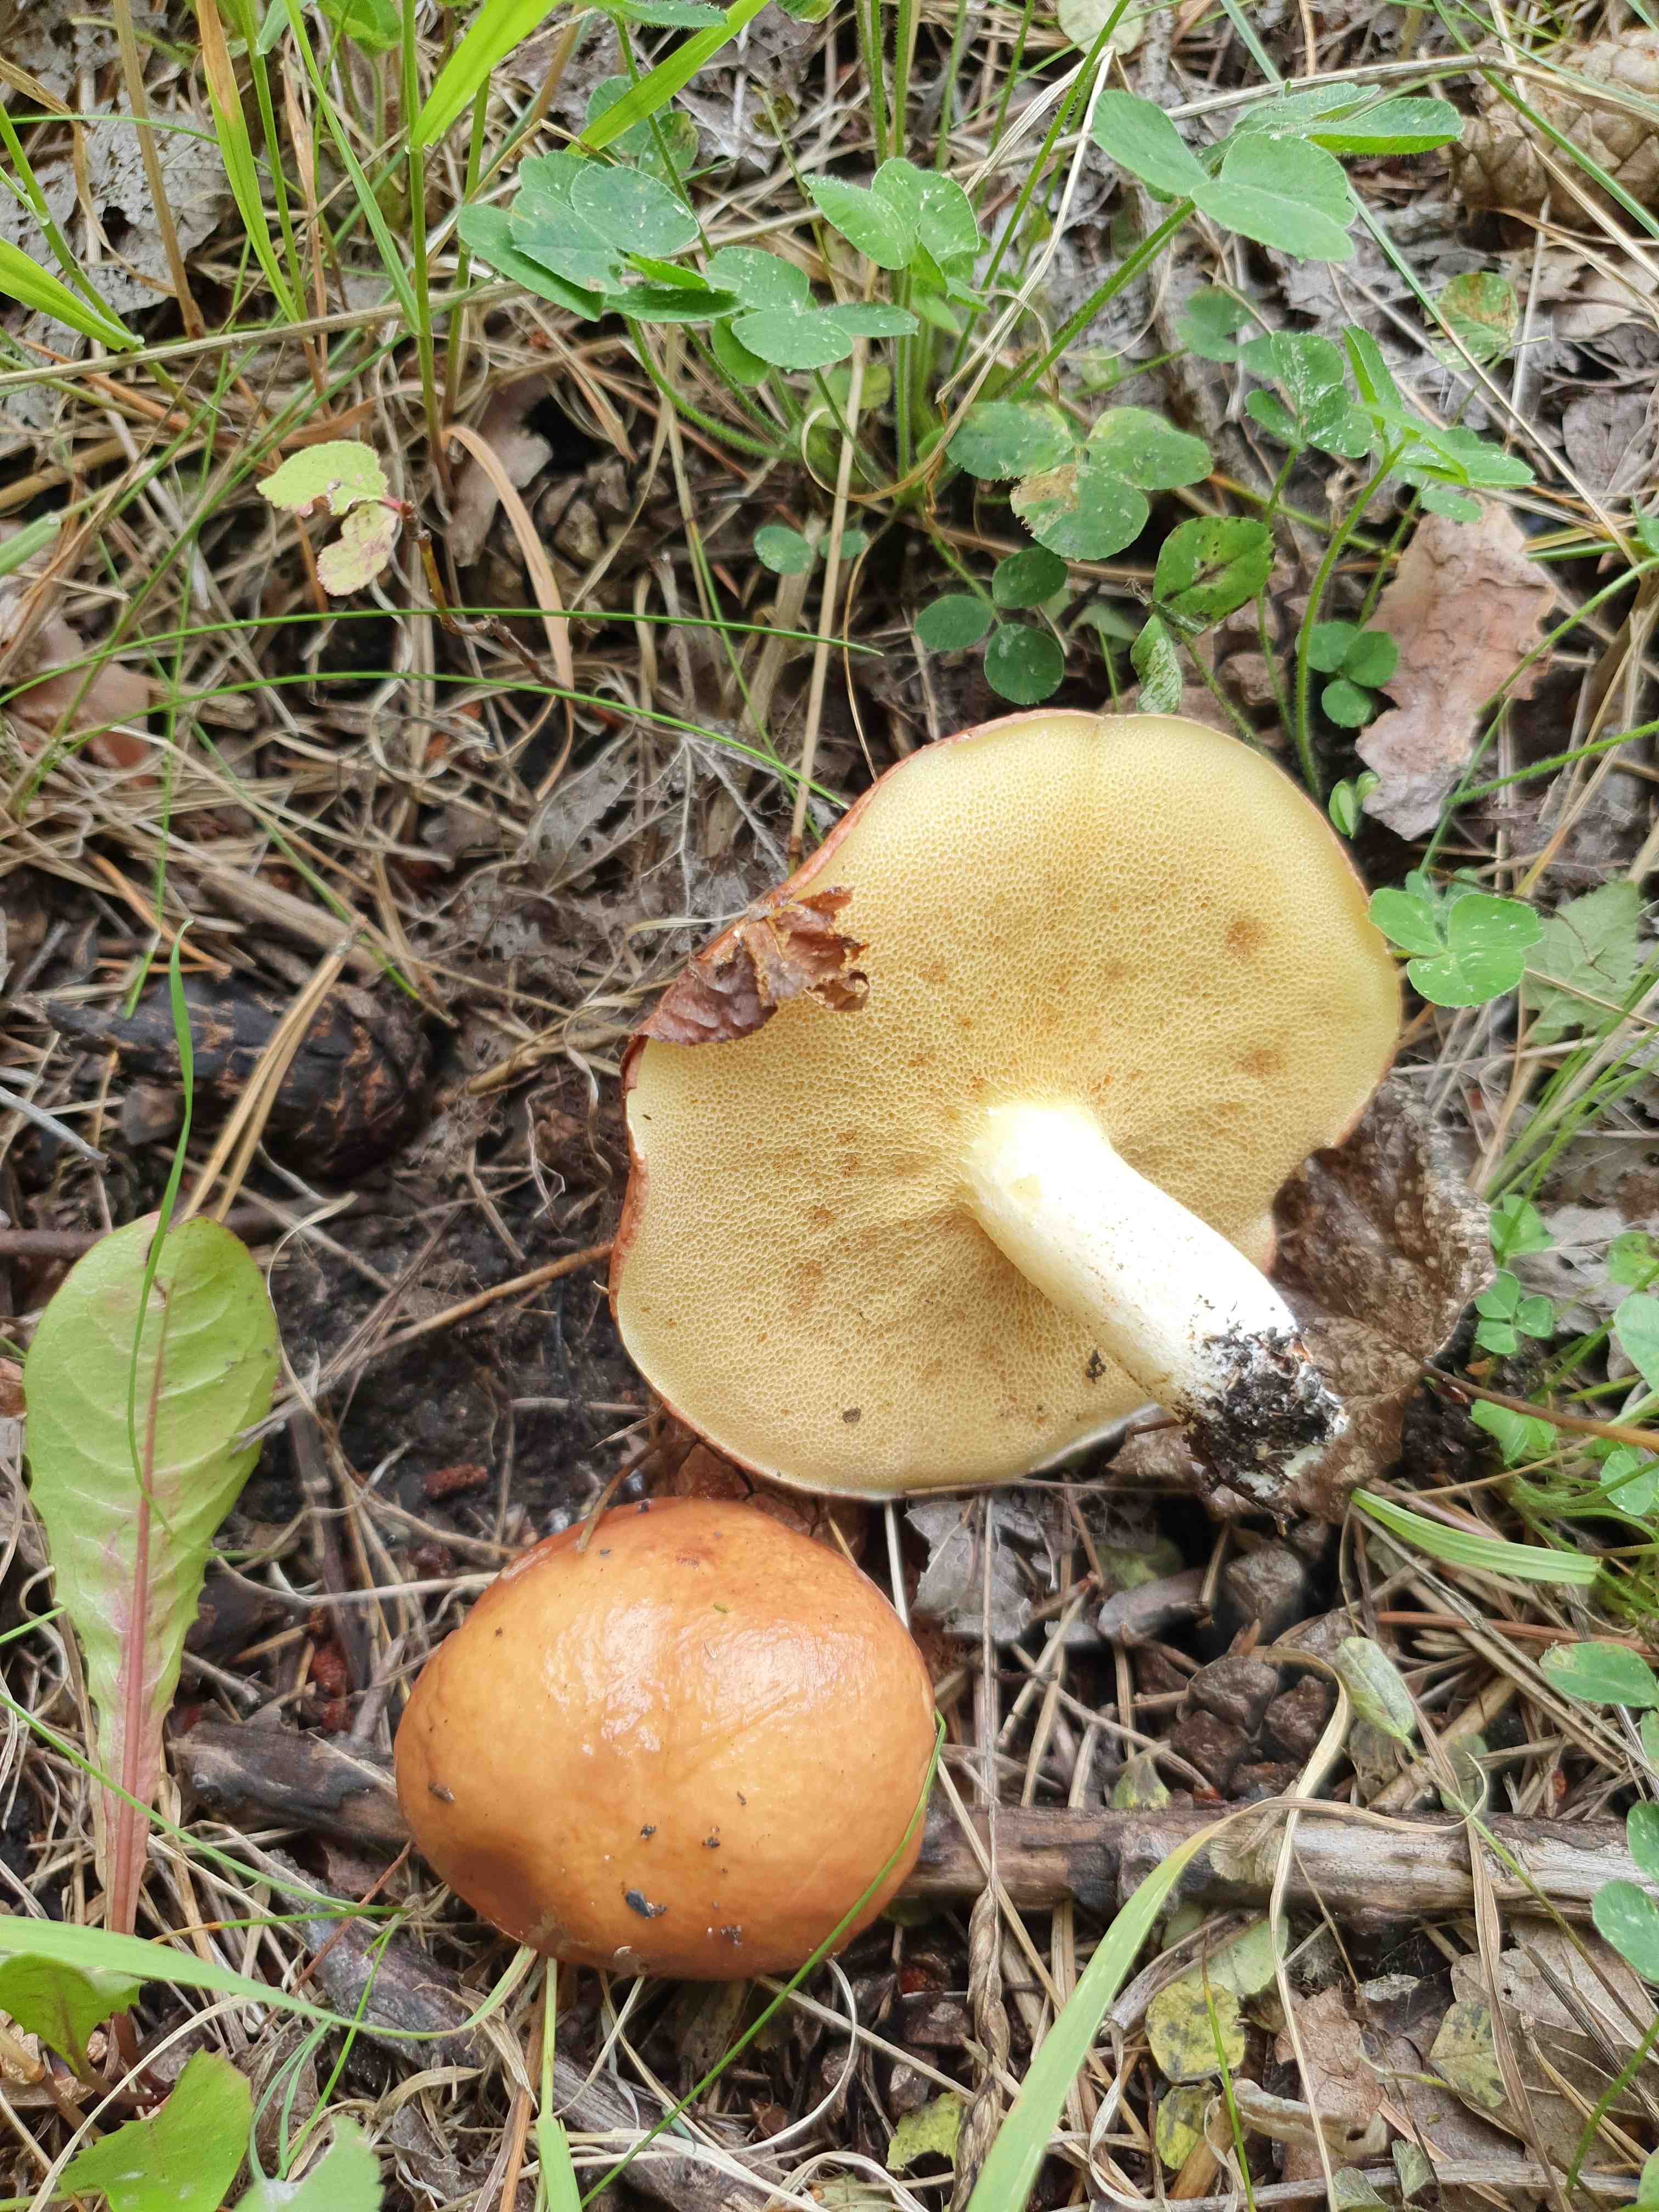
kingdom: Fungi
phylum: Basidiomycota
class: Agaricomycetes
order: Boletales
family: Suillaceae
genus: Suillus
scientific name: Suillus granulatus
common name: kornet slimrørhat
